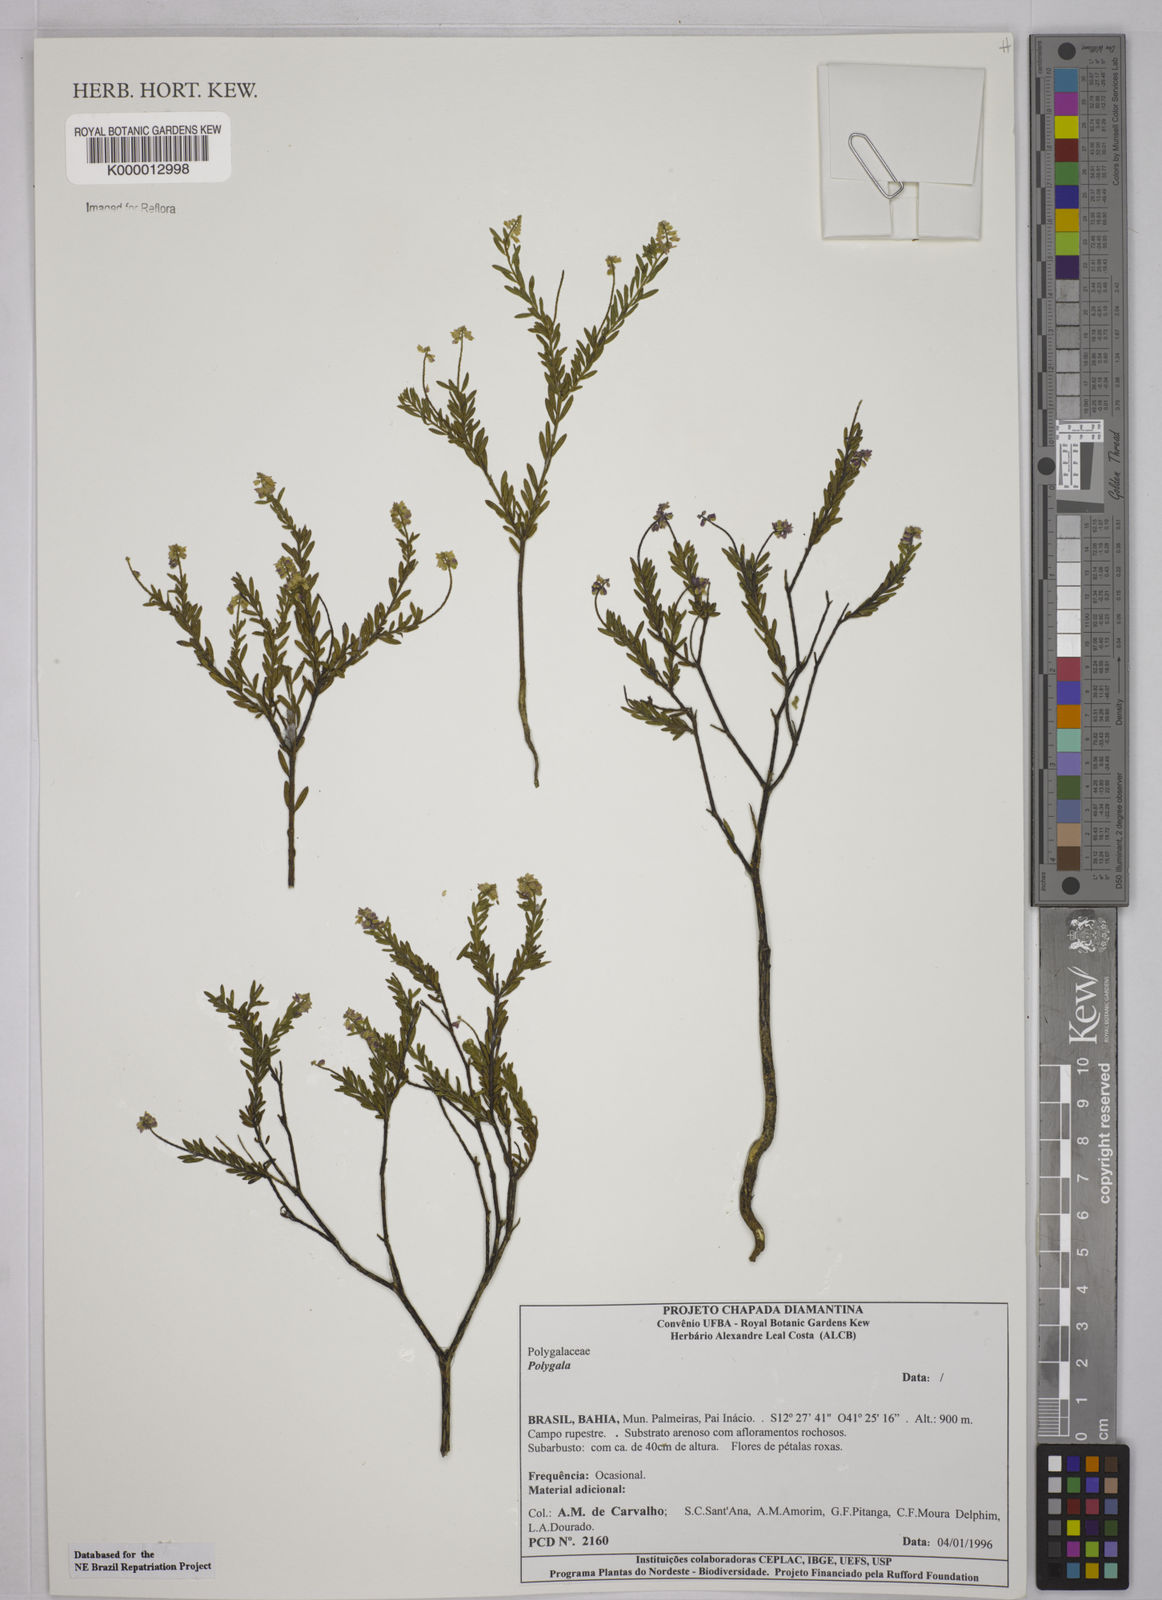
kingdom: Plantae
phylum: Tracheophyta
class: Magnoliopsida
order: Fabales
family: Polygalaceae
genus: Polygala
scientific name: Polygala
